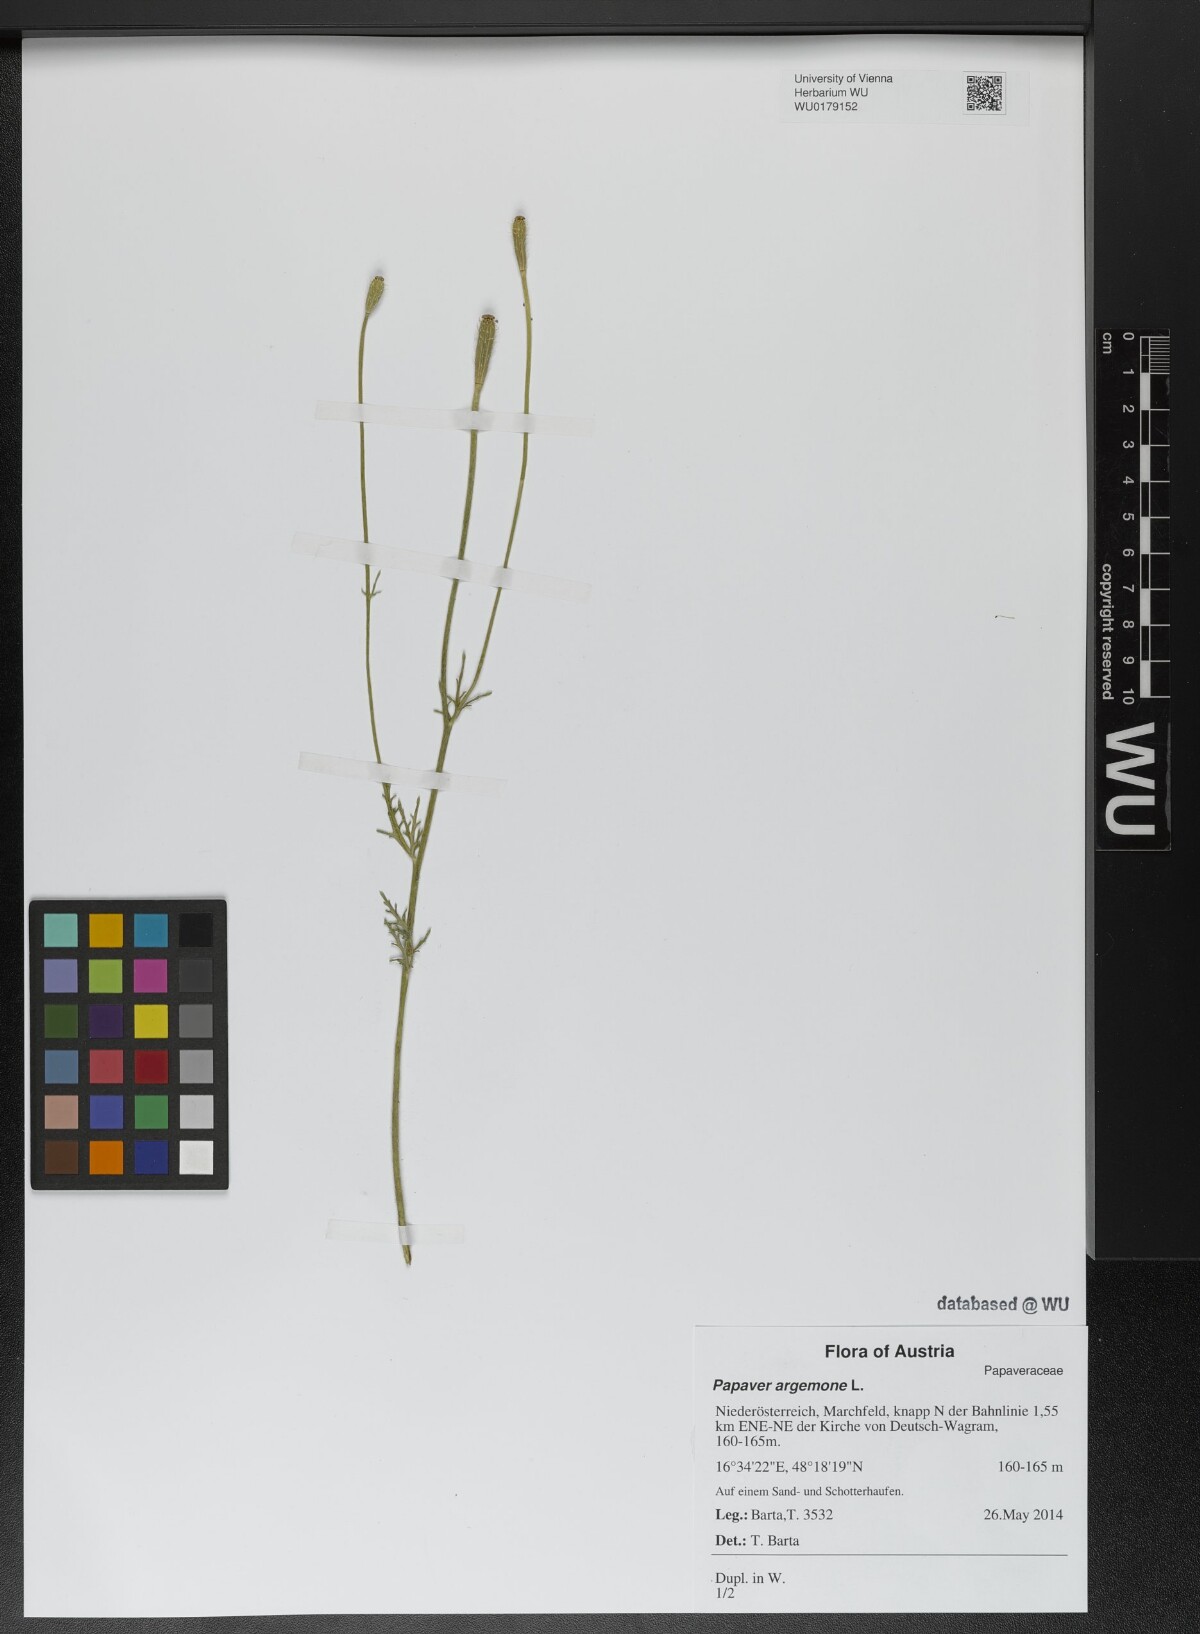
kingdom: Plantae
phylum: Tracheophyta
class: Magnoliopsida
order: Ranunculales
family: Papaveraceae
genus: Roemeria
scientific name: Roemeria argemone
